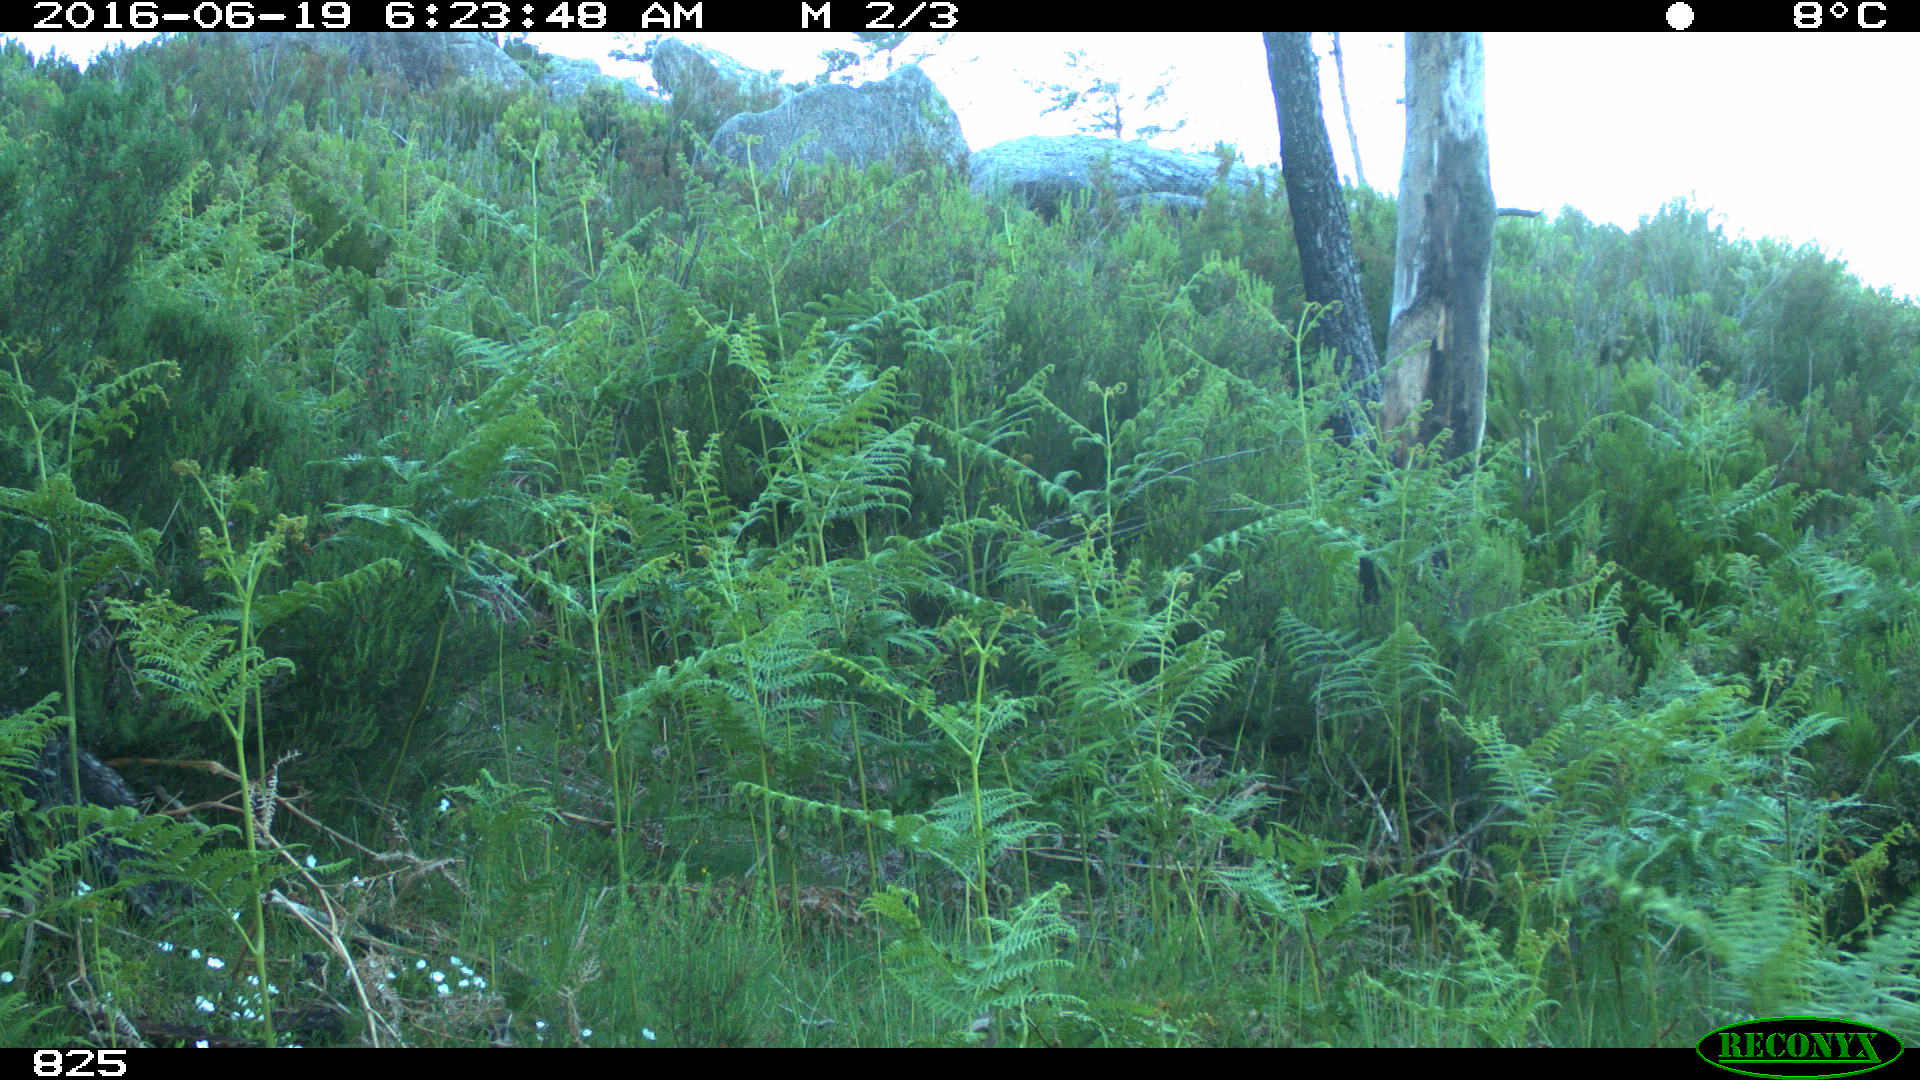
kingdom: Animalia
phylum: Chordata
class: Mammalia
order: Artiodactyla
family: Cervidae
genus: Capreolus
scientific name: Capreolus capreolus
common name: Western roe deer
